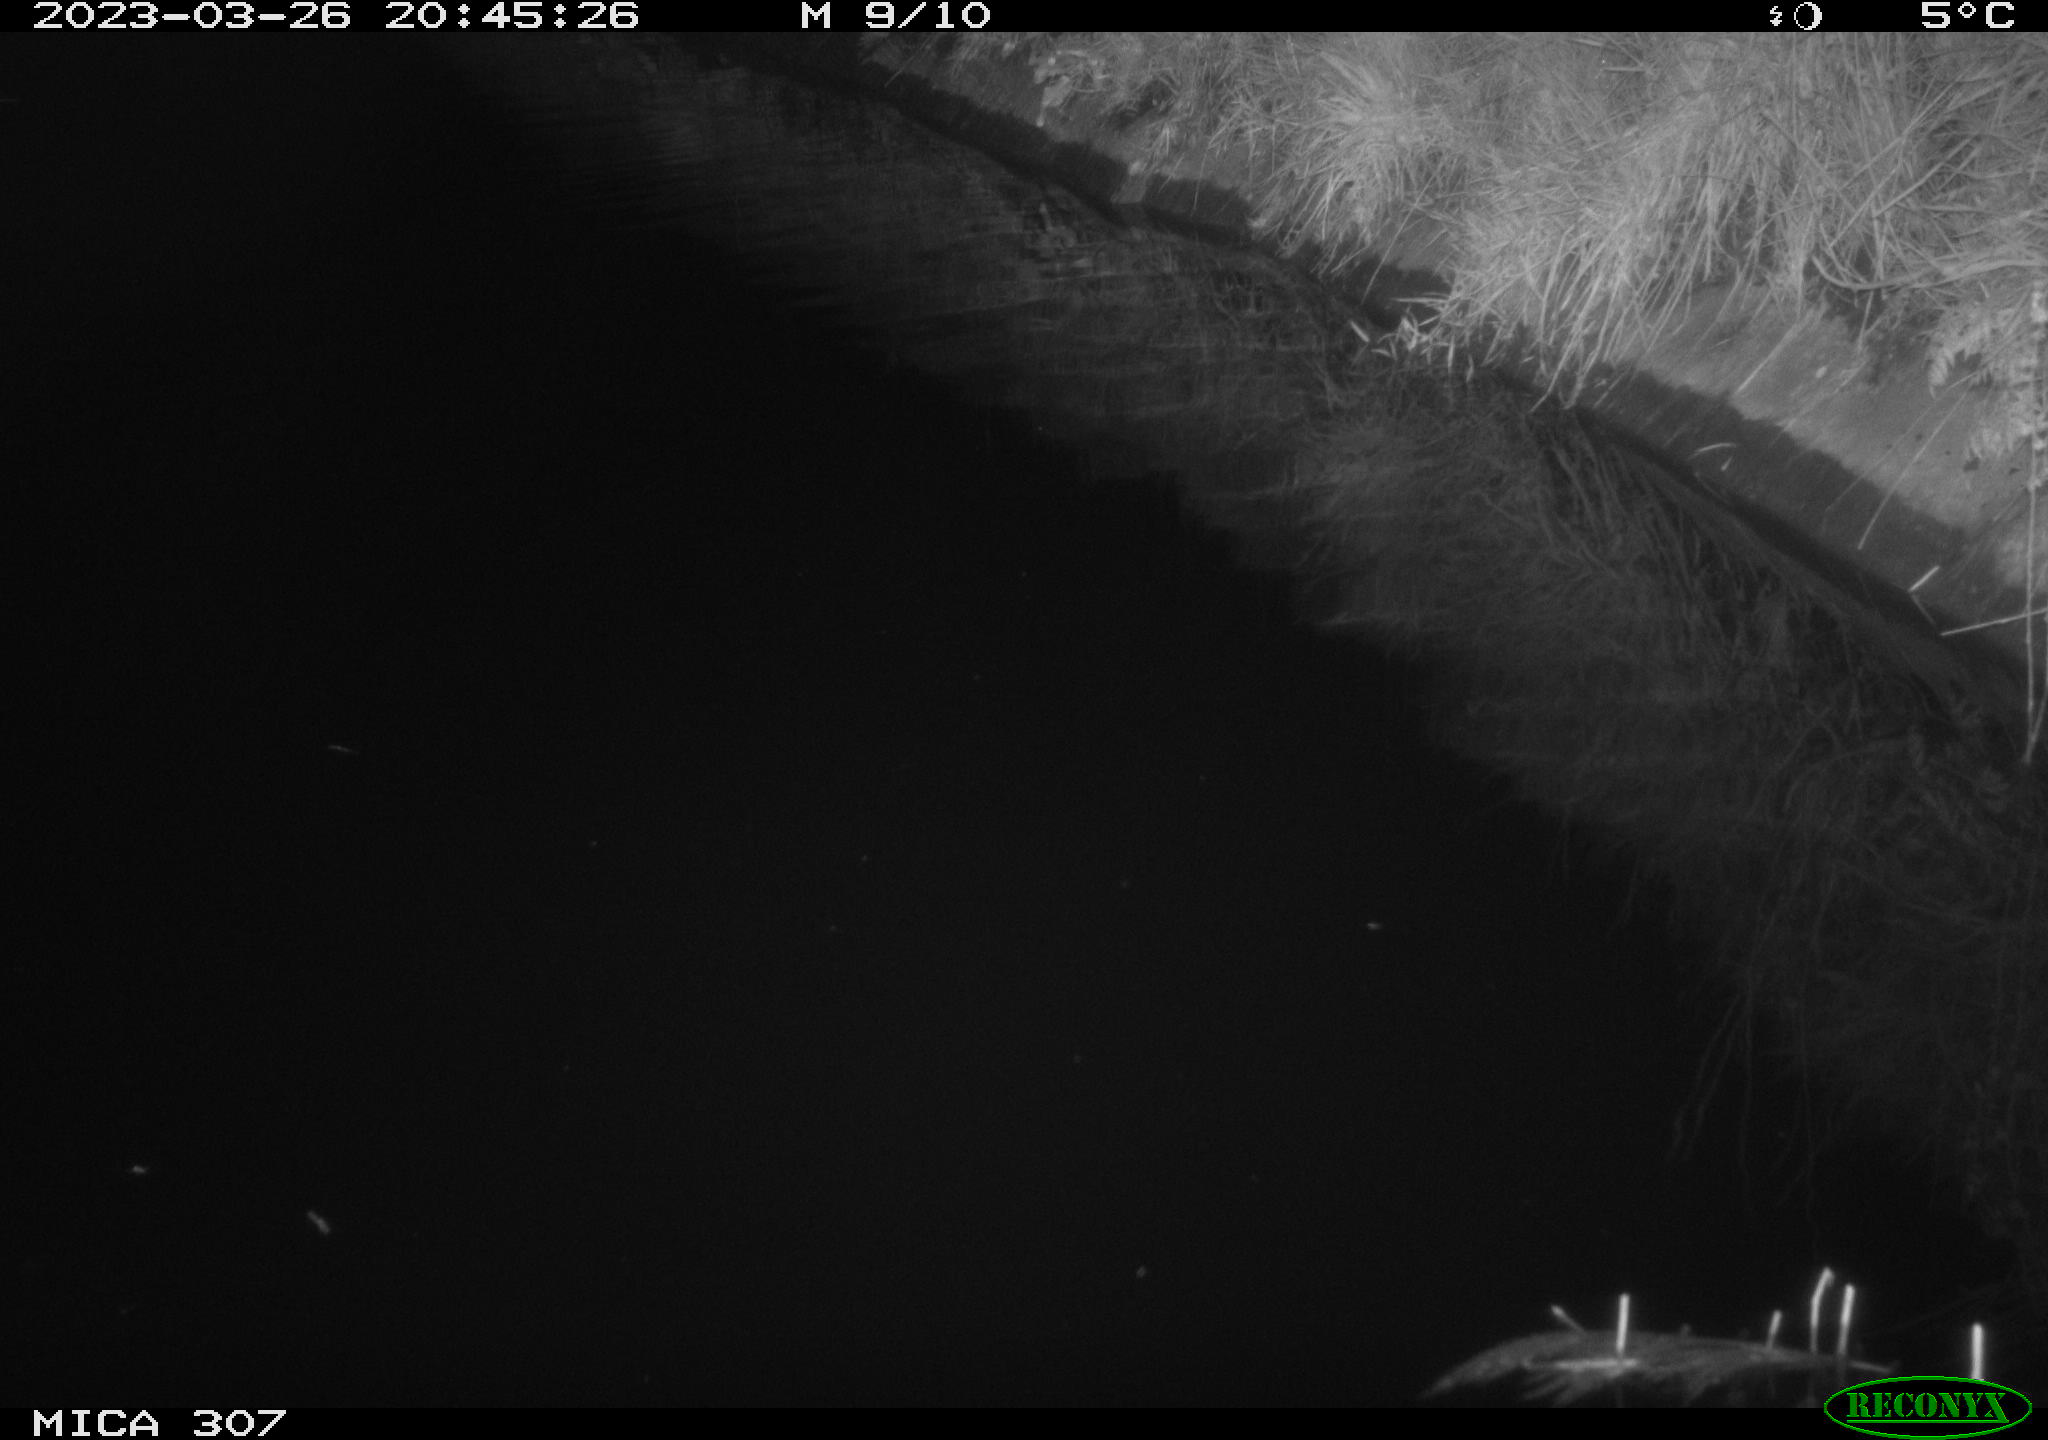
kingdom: Animalia
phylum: Chordata
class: Aves
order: Anseriformes
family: Anatidae
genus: Anas
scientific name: Anas
